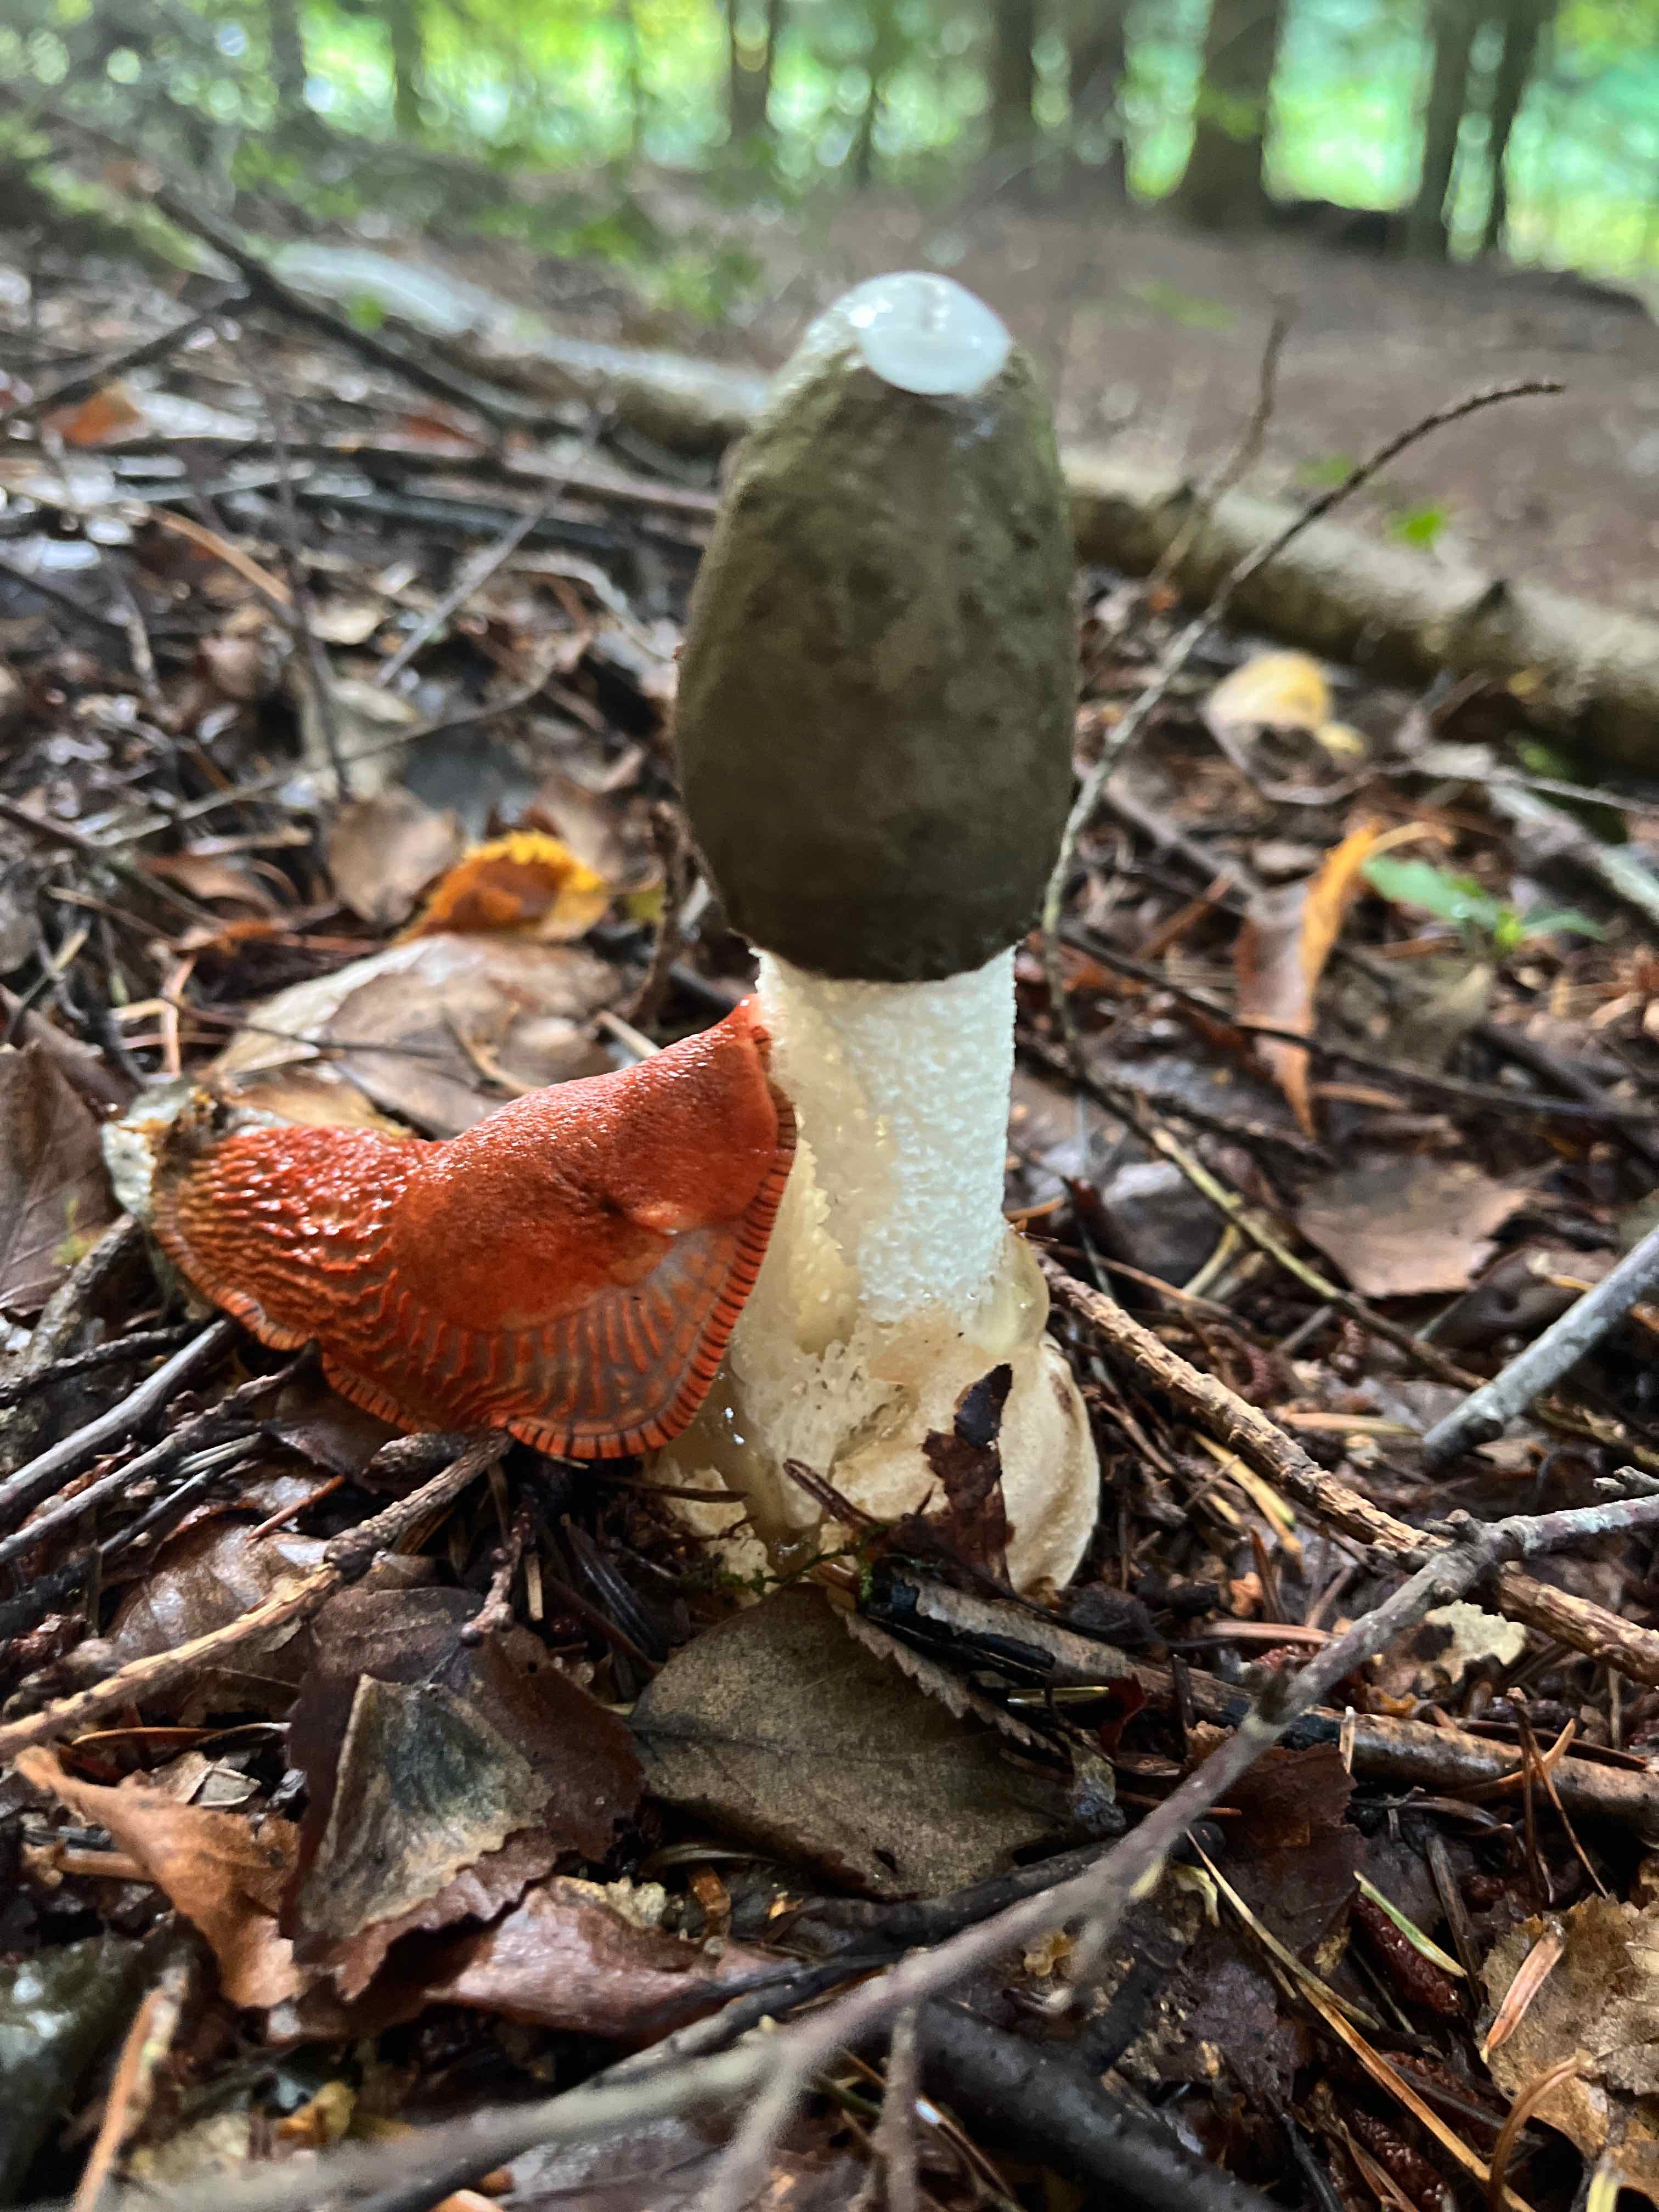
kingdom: Fungi
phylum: Basidiomycota
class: Agaricomycetes
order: Phallales
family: Phallaceae
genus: Phallus
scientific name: Phallus impudicus
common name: almindelig stinksvamp
